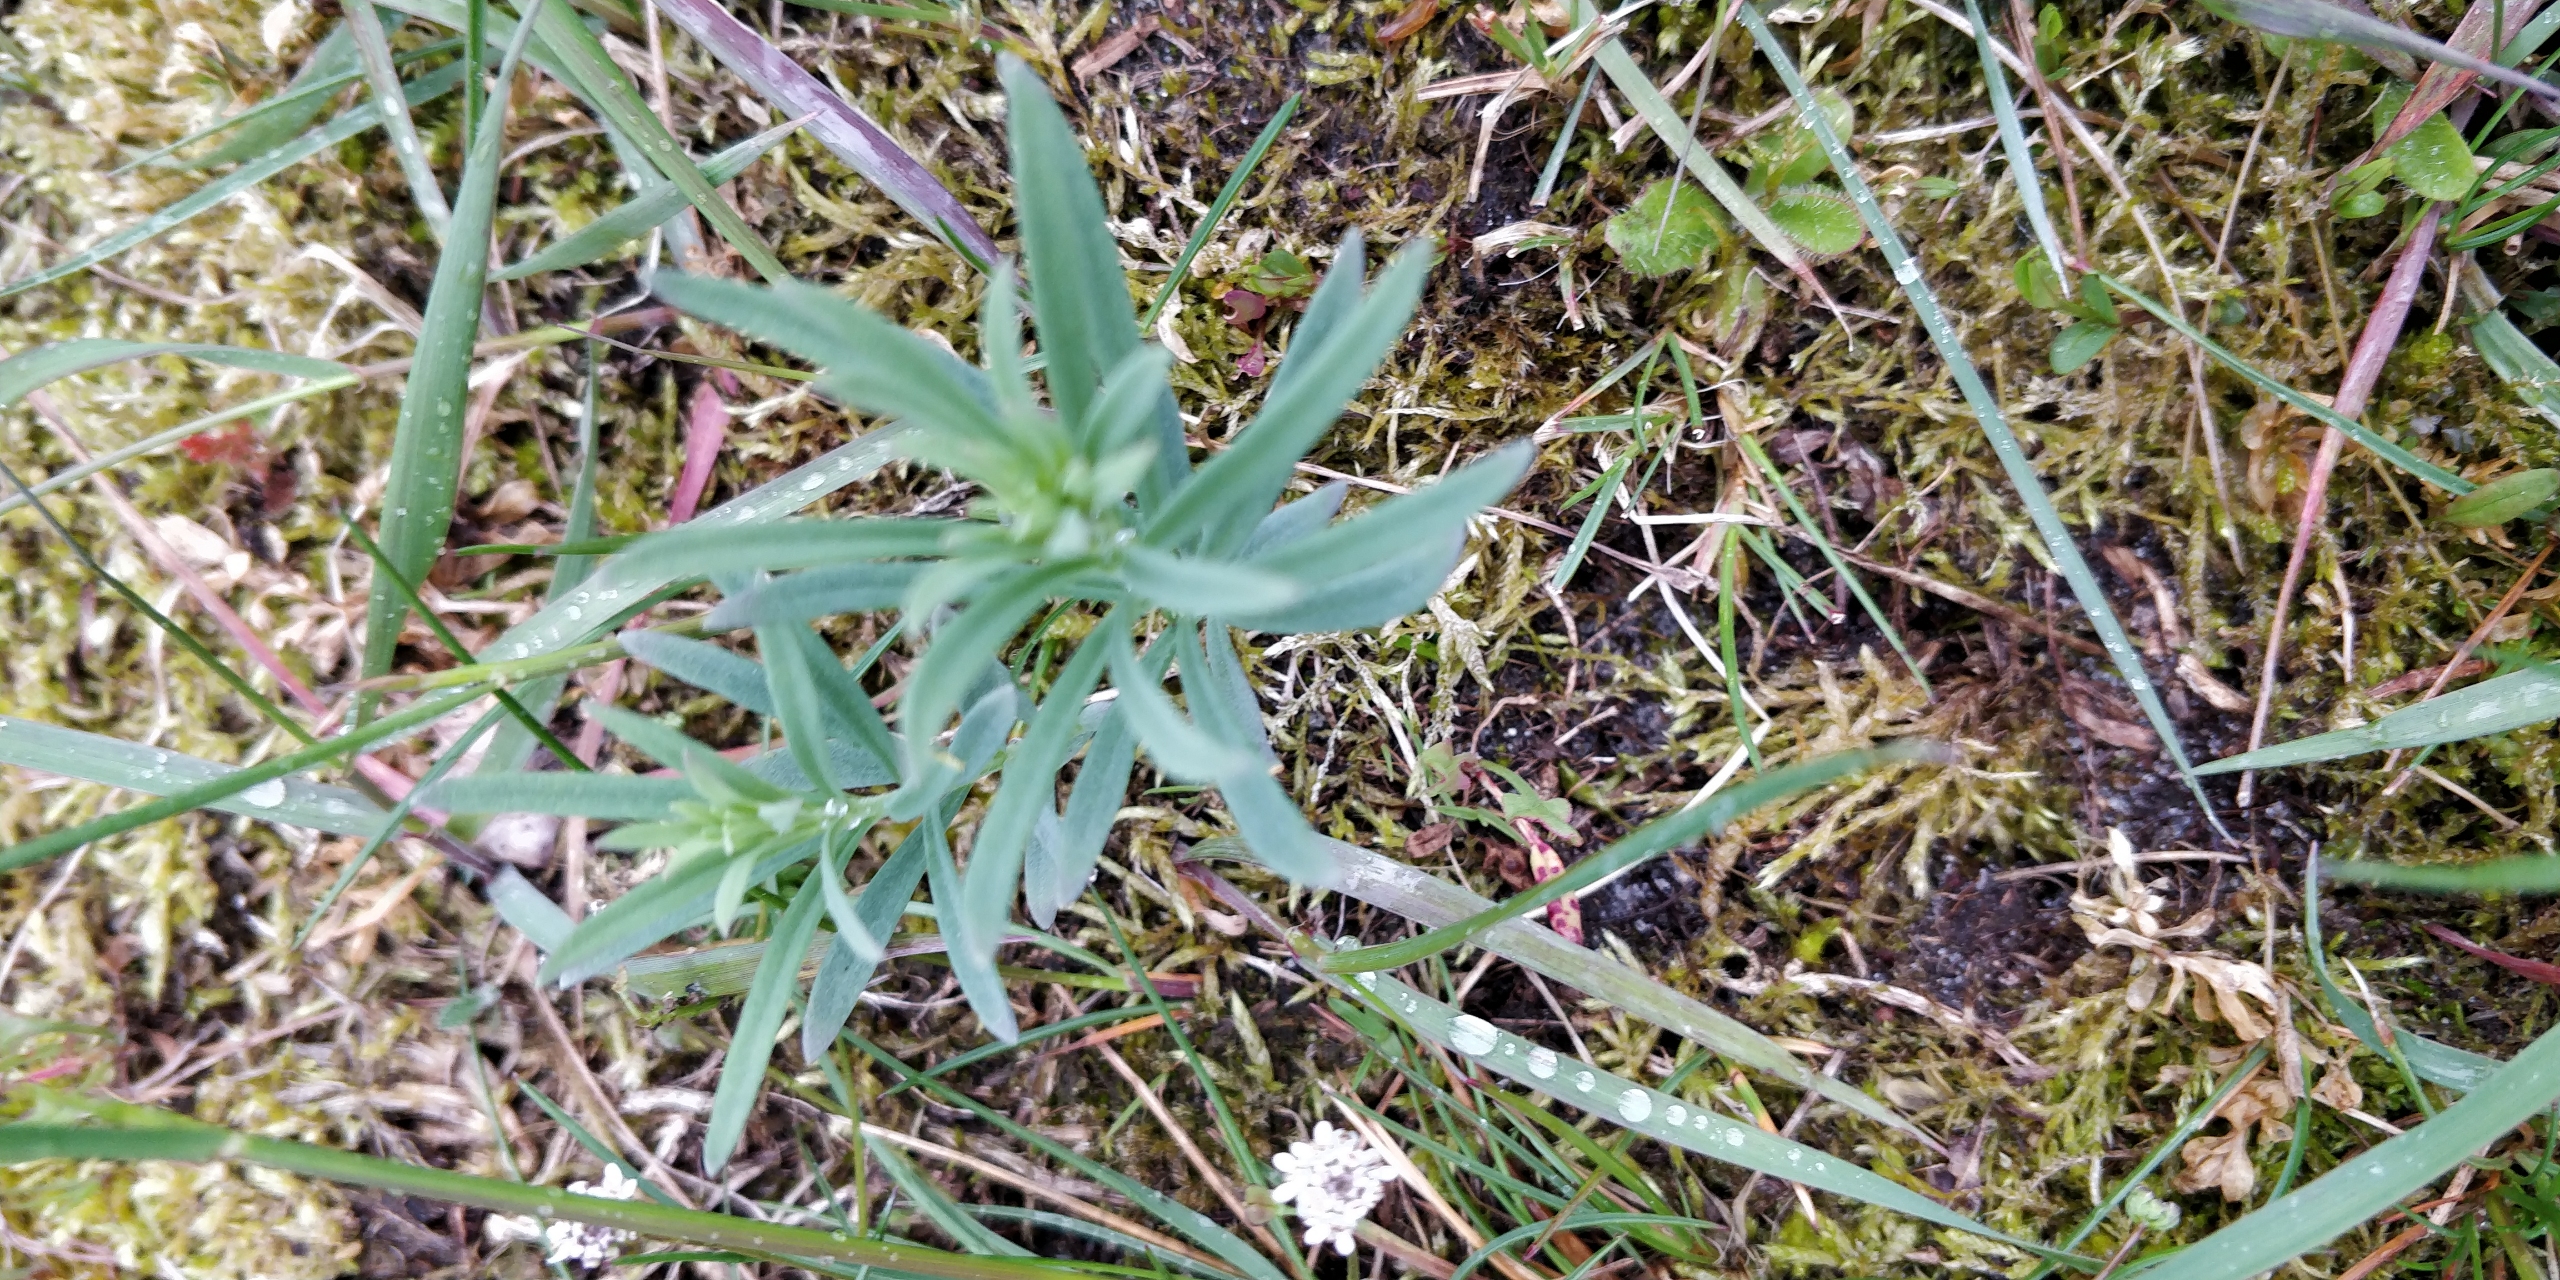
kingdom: Plantae
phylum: Tracheophyta
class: Magnoliopsida
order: Lamiales
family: Plantaginaceae
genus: Linaria
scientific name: Linaria vulgaris
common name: Almindelig torskemund
